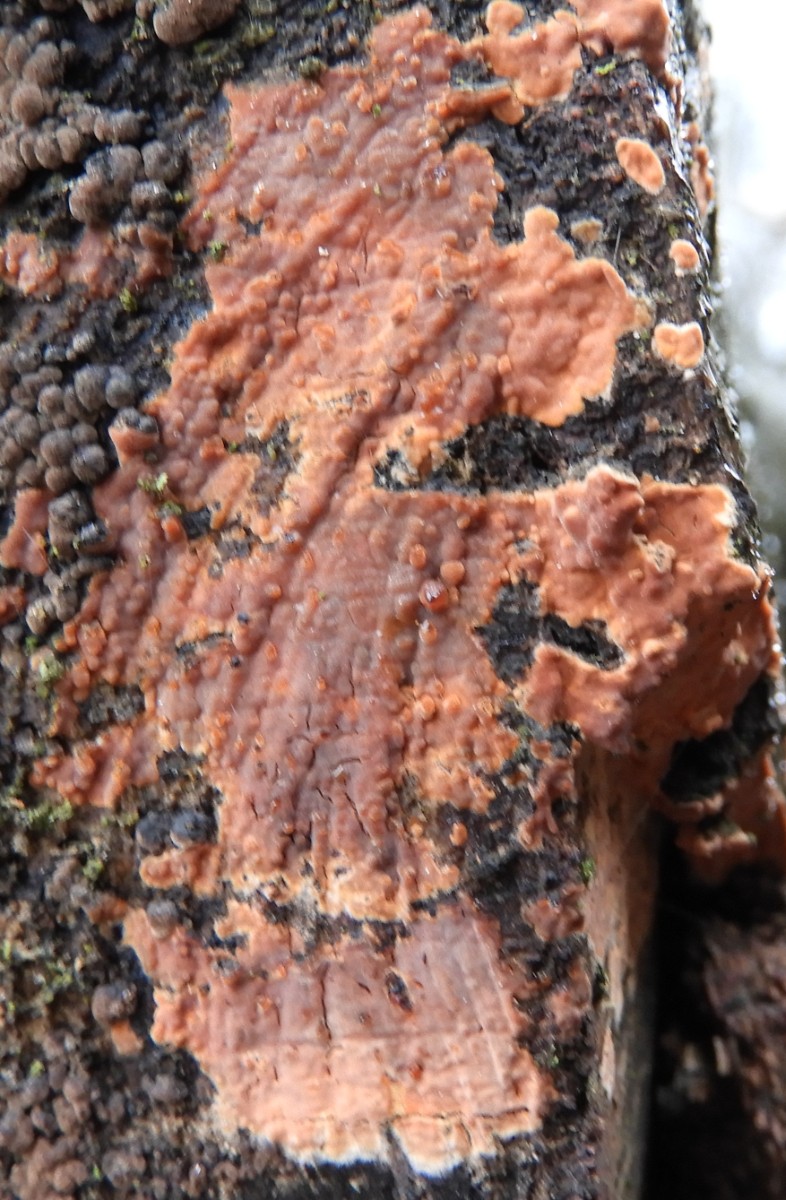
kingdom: Fungi
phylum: Basidiomycota
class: Agaricomycetes
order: Russulales
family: Peniophoraceae
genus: Peniophora
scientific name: Peniophora incarnata
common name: laksefarvet voksskind
